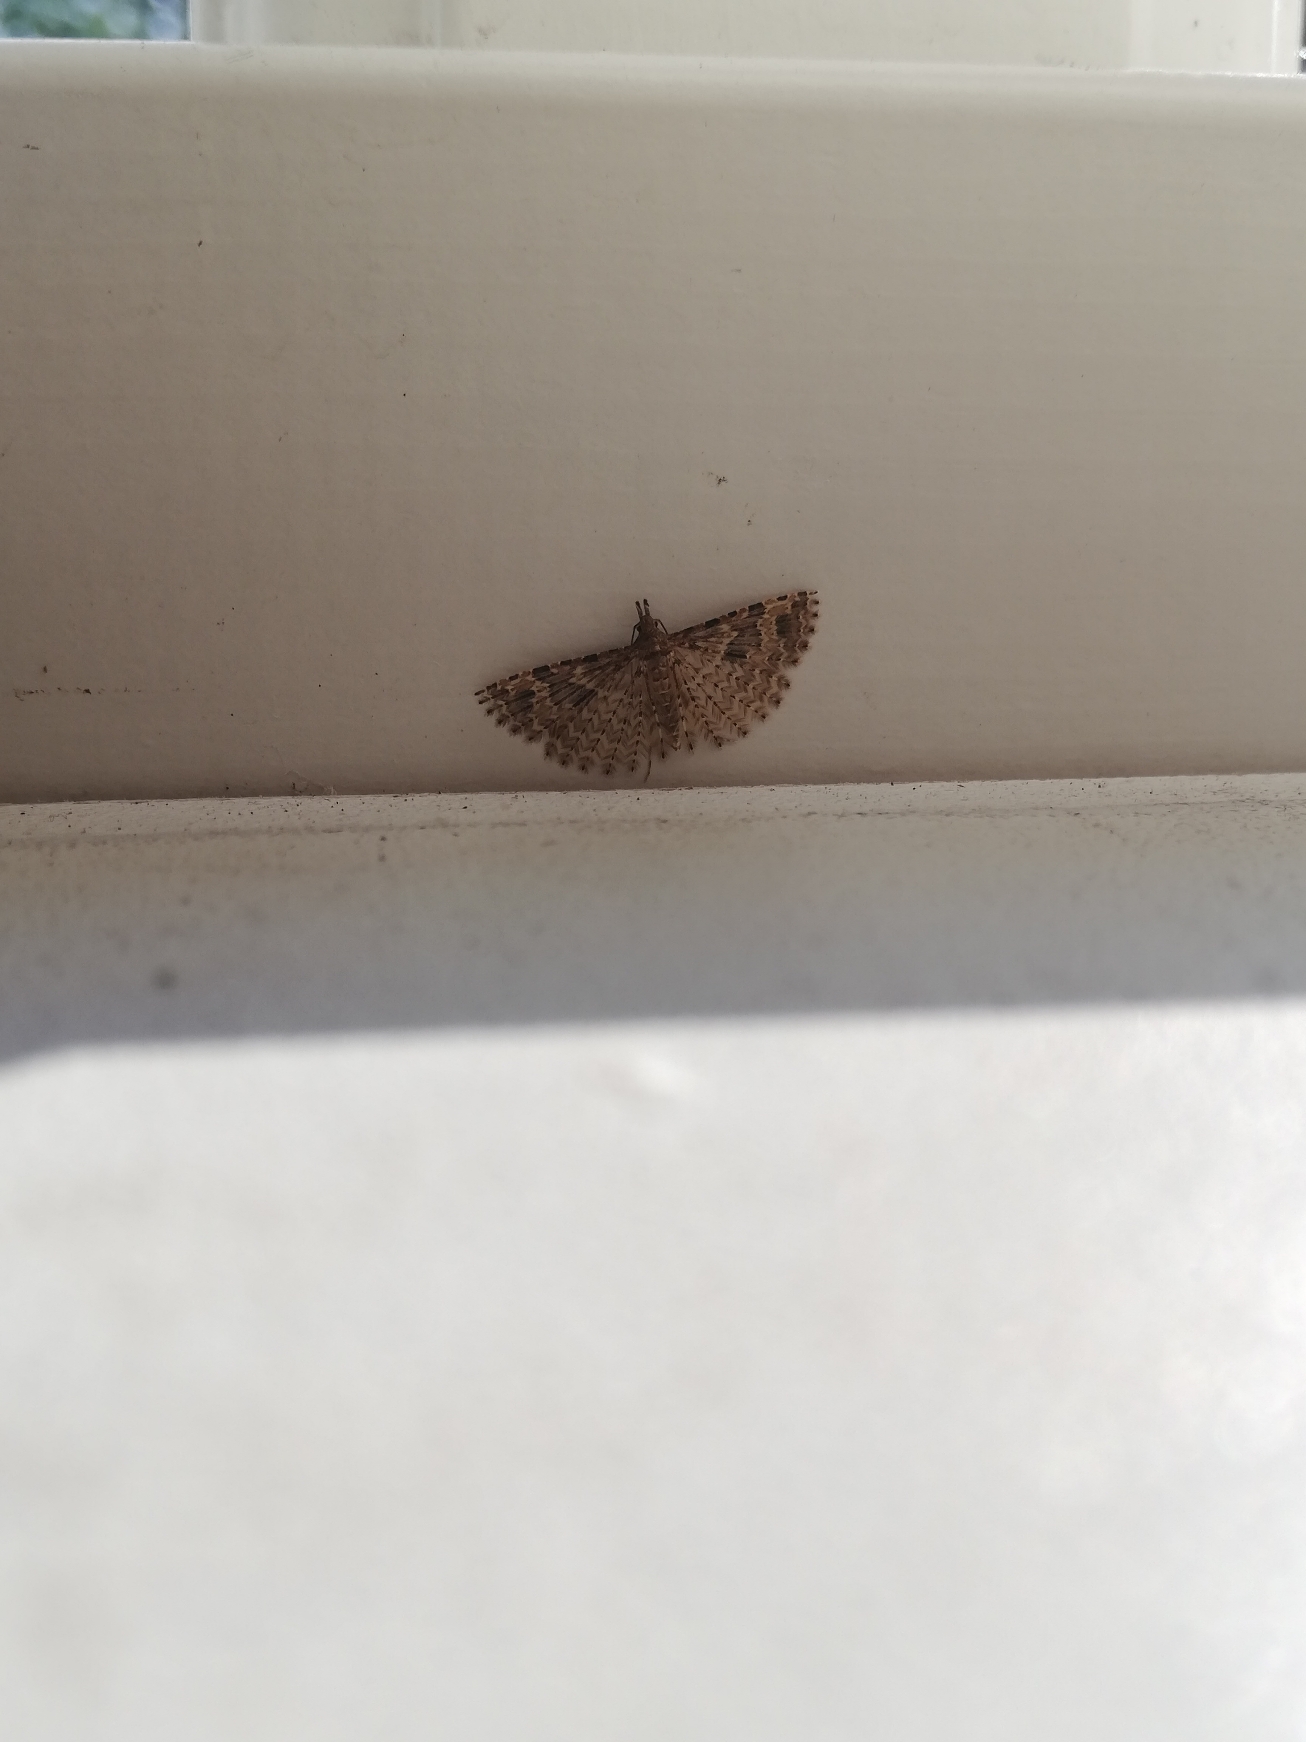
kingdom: Animalia
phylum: Arthropoda
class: Insecta
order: Lepidoptera
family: Alucitidae
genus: Alucita
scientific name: Alucita hexadactyla
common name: Kaprifoliefjermøl
